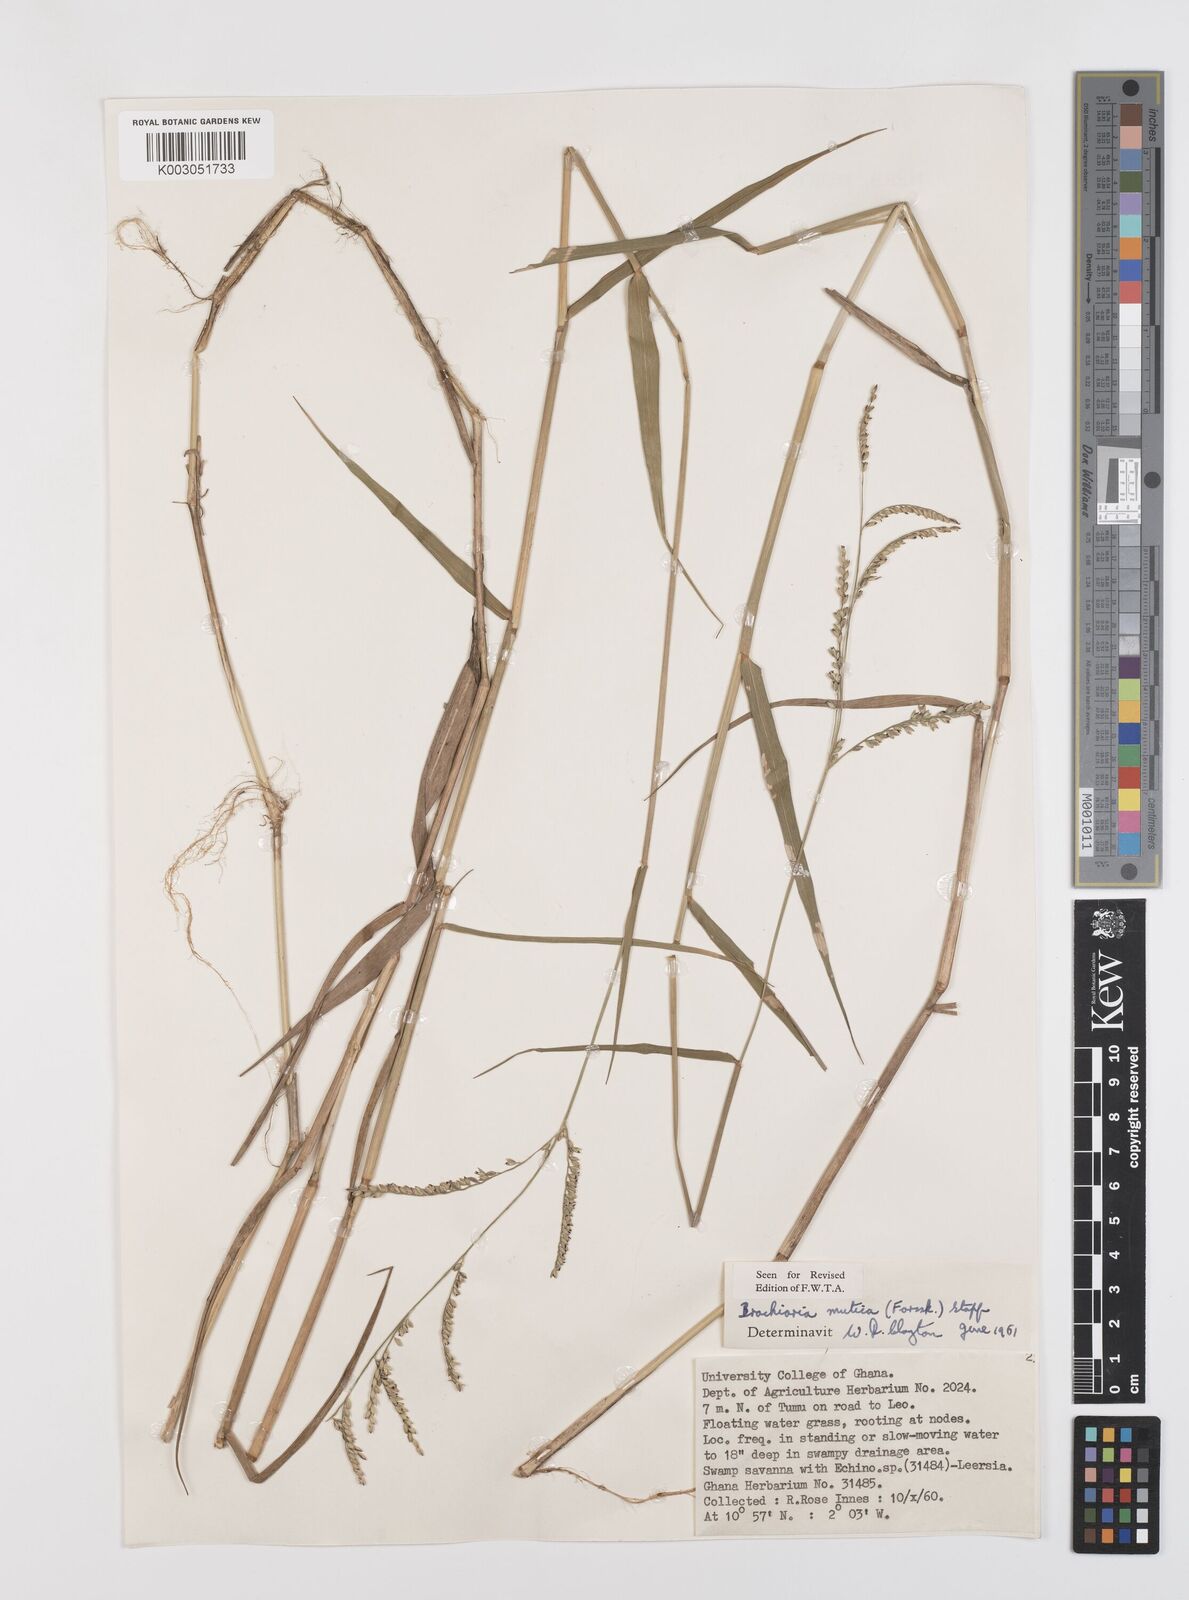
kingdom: Plantae
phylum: Tracheophyta
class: Liliopsida
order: Poales
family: Poaceae
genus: Urochloa
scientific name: Urochloa mutica
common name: Para grass
